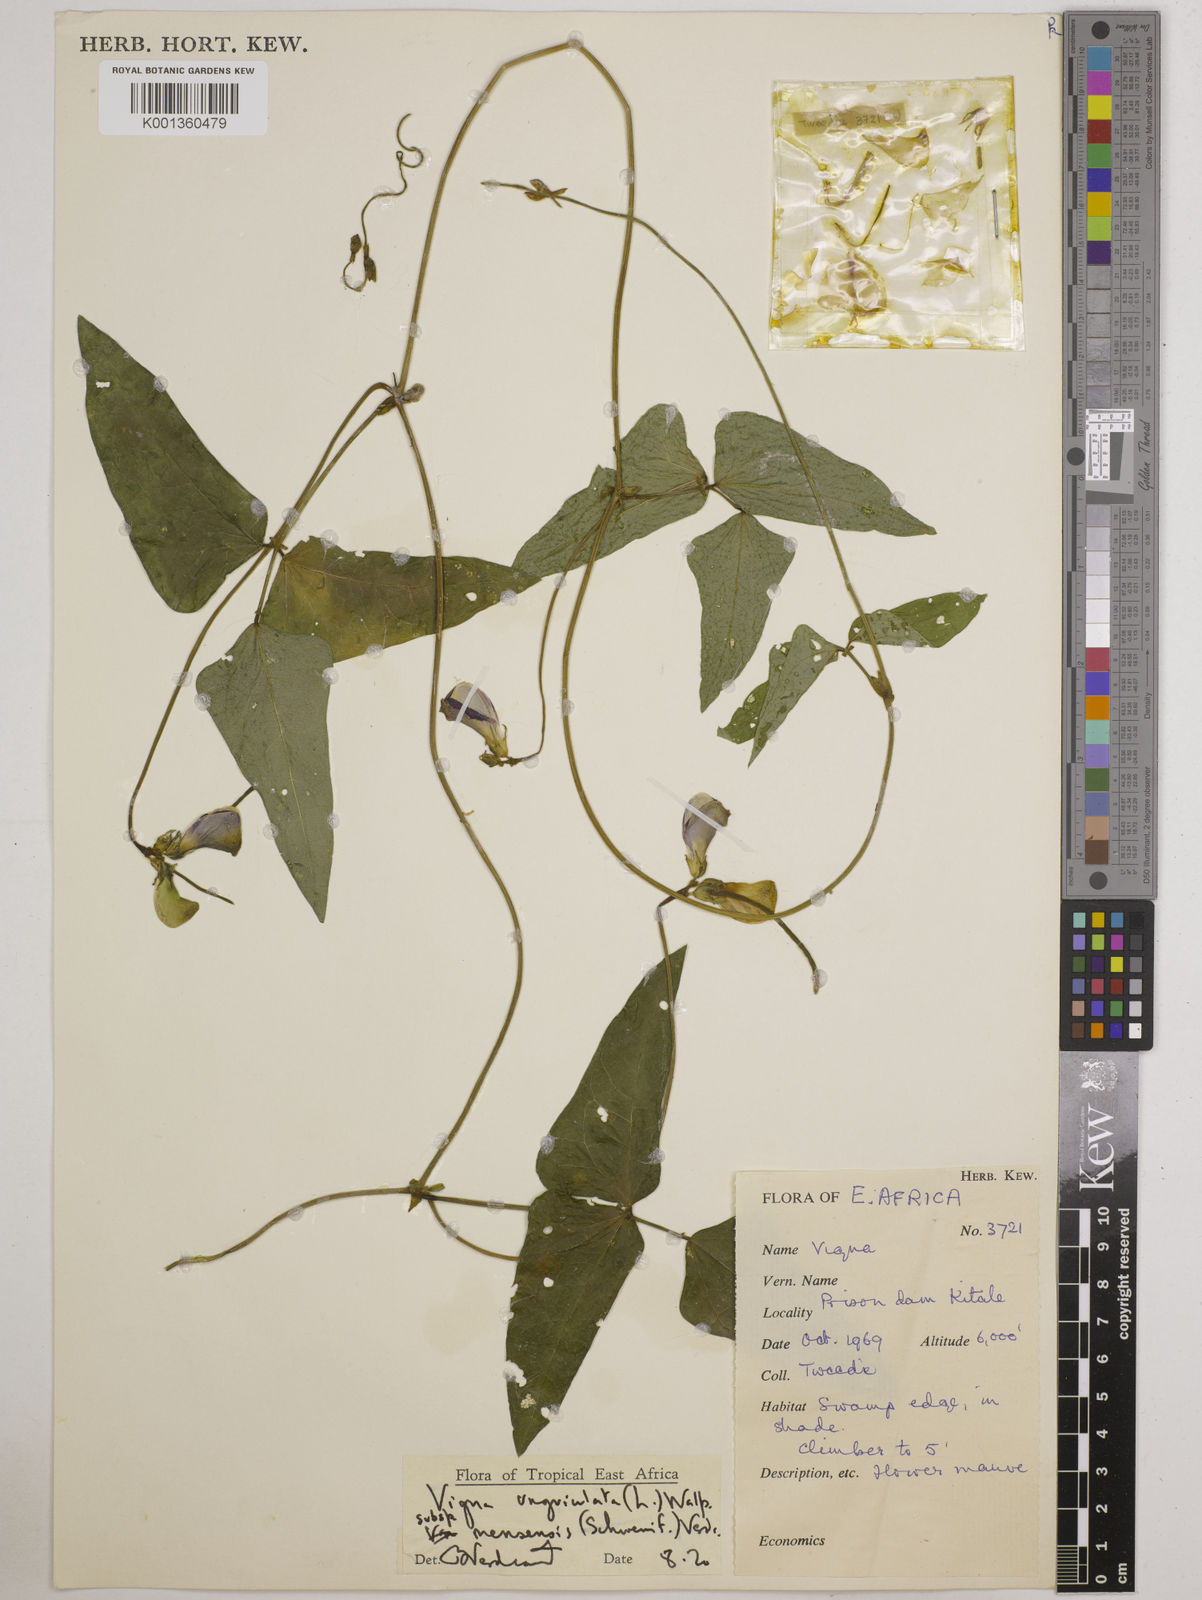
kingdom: Plantae
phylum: Tracheophyta
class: Magnoliopsida
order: Fabales
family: Fabaceae
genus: Vigna
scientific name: Vigna unguiculata
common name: Cowpea
